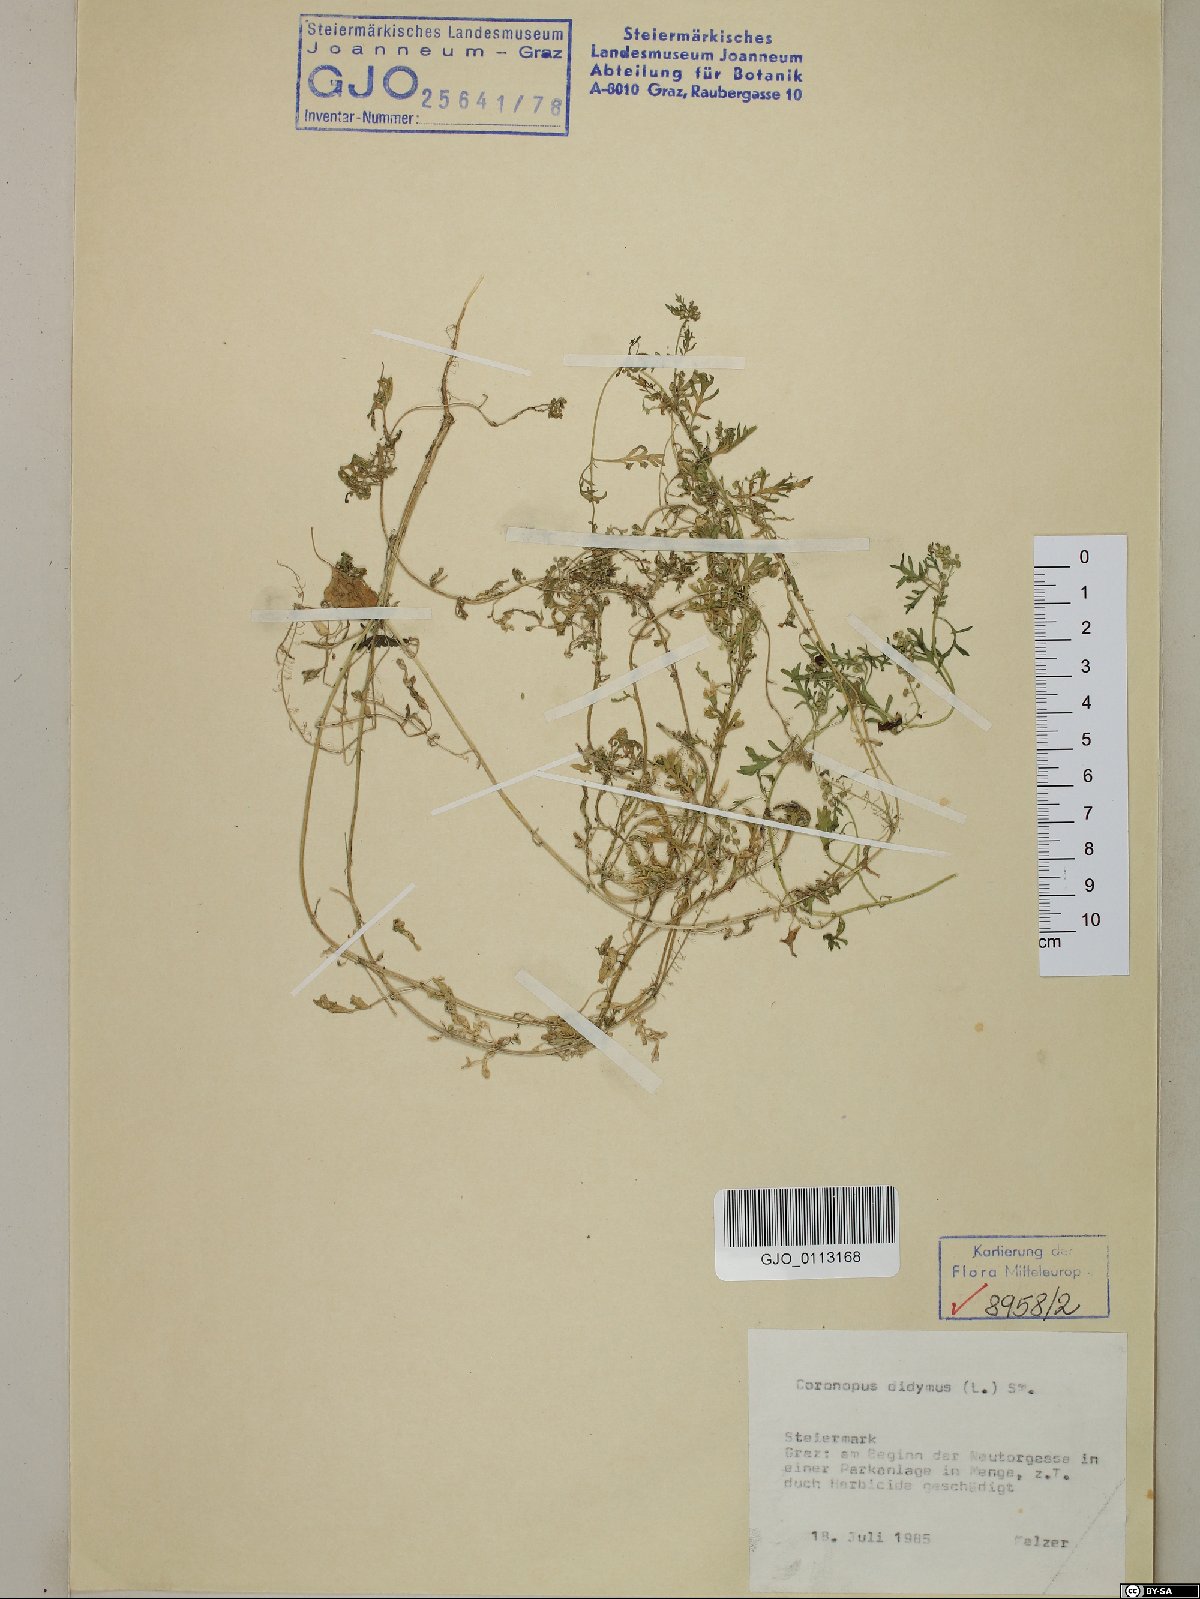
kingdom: Plantae
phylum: Tracheophyta
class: Magnoliopsida
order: Brassicales
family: Brassicaceae
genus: Lepidium
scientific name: Lepidium didymum
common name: Lesser swinecress
